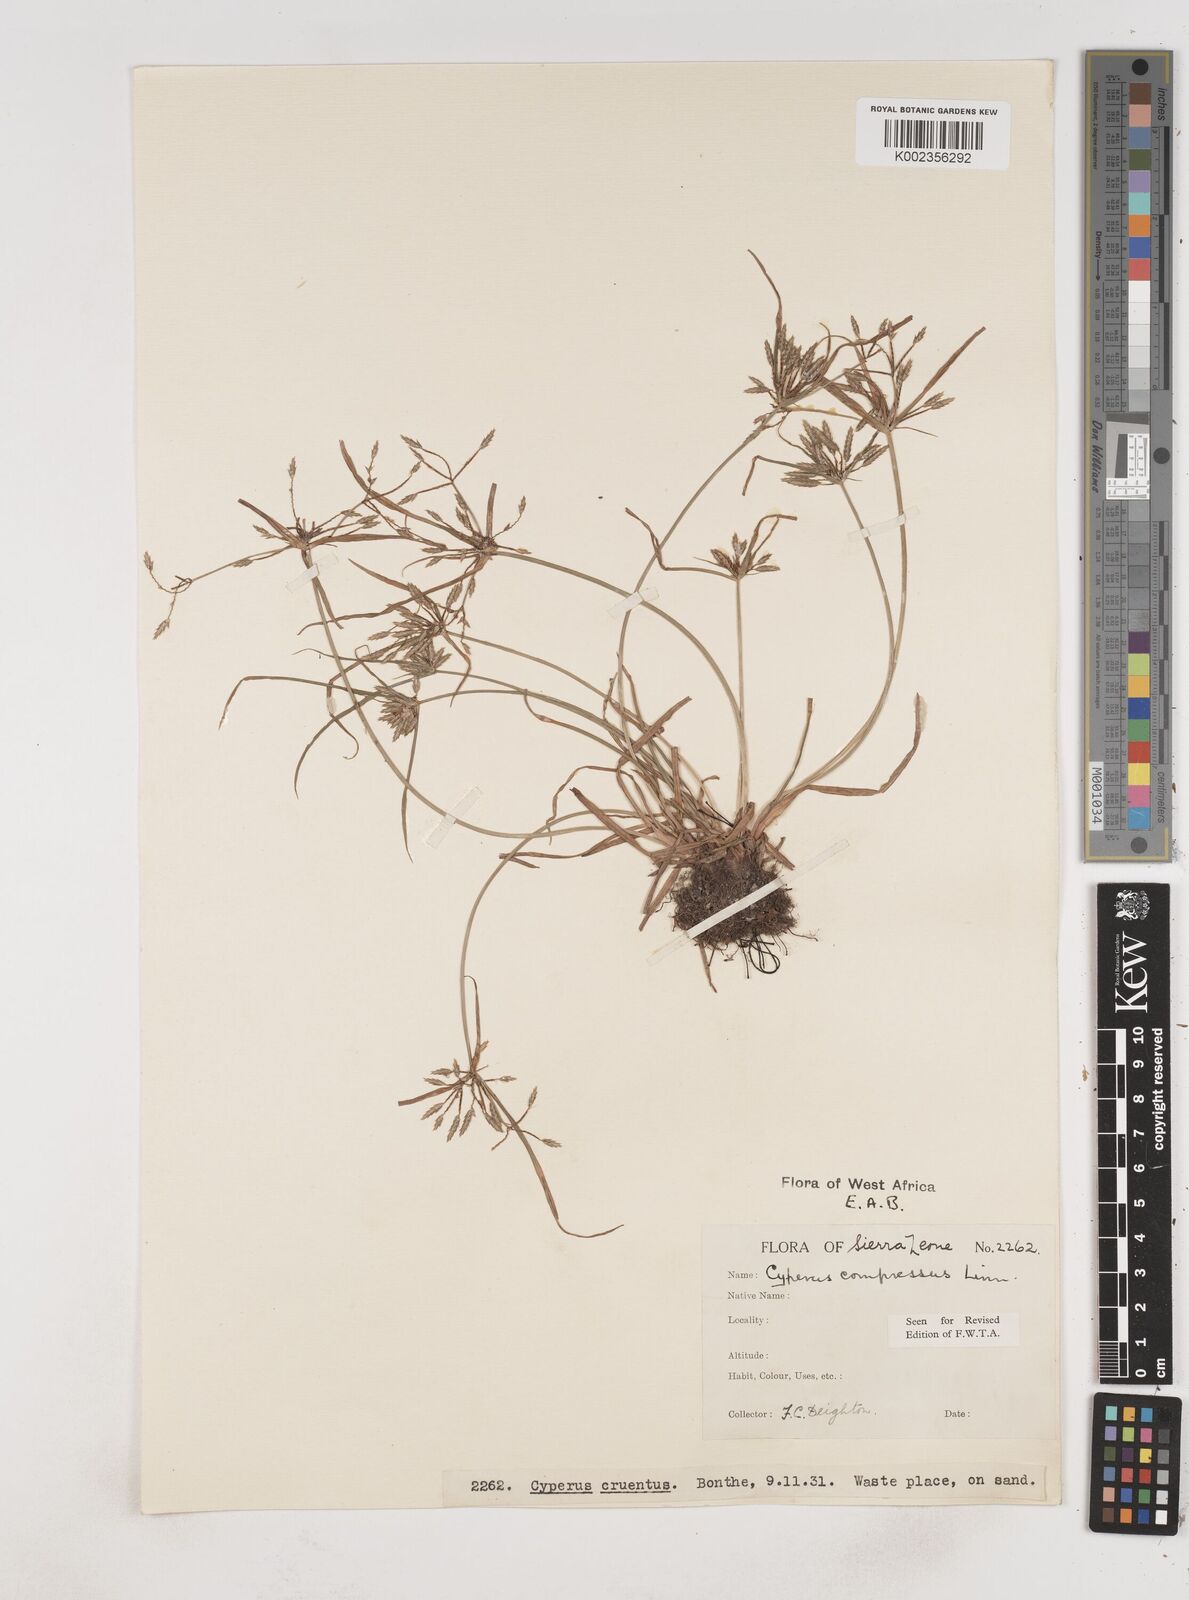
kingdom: Plantae
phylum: Tracheophyta
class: Liliopsida
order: Poales
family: Cyperaceae
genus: Cyperus
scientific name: Cyperus compressus
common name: Poorland flatsedge
